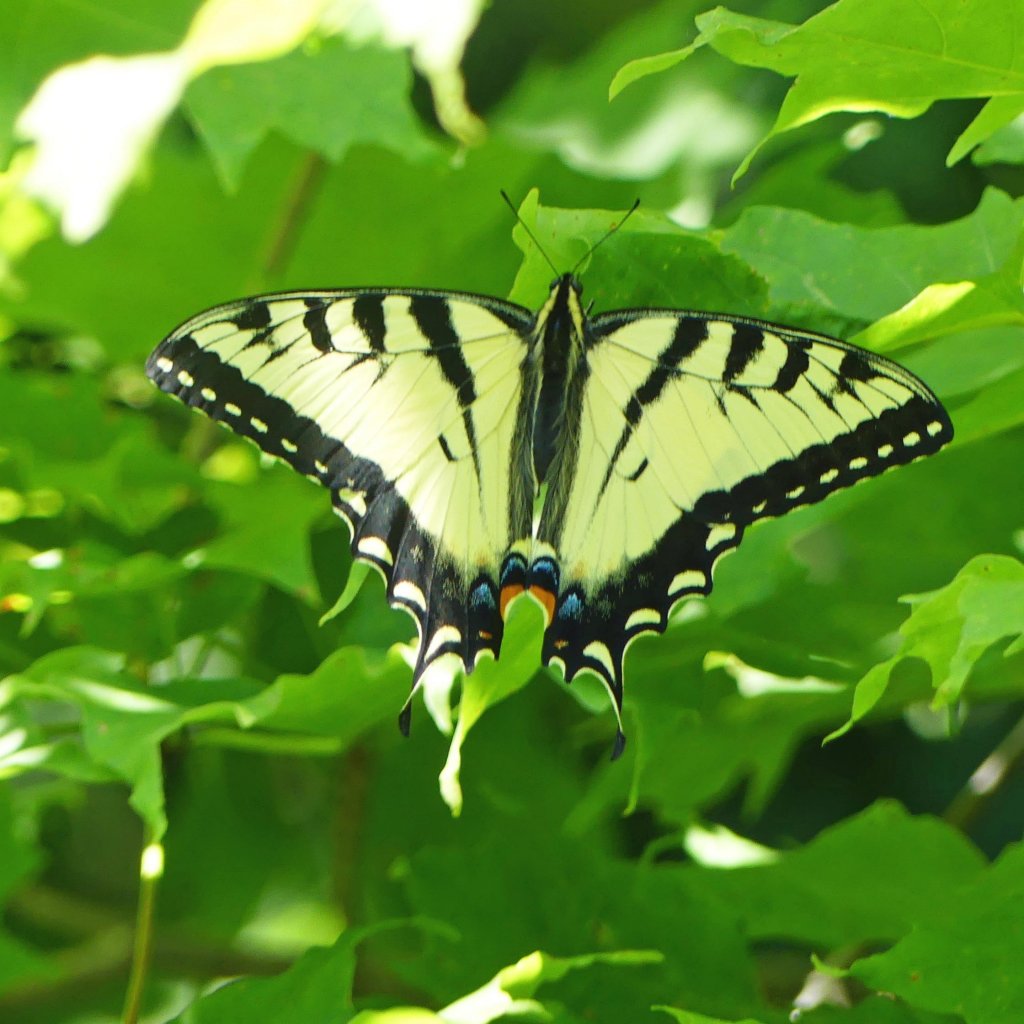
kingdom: Animalia
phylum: Arthropoda
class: Insecta
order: Lepidoptera
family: Papilionidae
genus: Pterourus
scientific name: Pterourus glaucus
